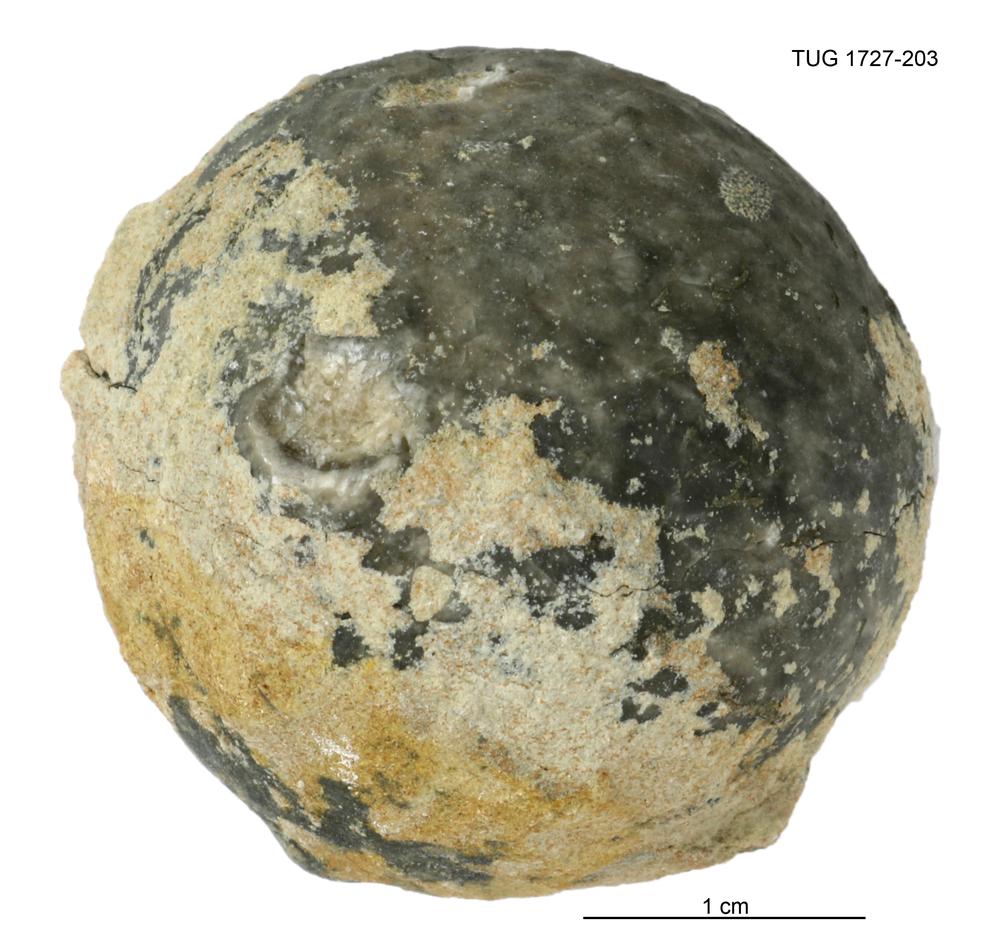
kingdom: Animalia
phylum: Echinodermata
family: Echinosphaeritidae
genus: Echinosphaerites
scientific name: Echinosphaerites Echinus aurantium
